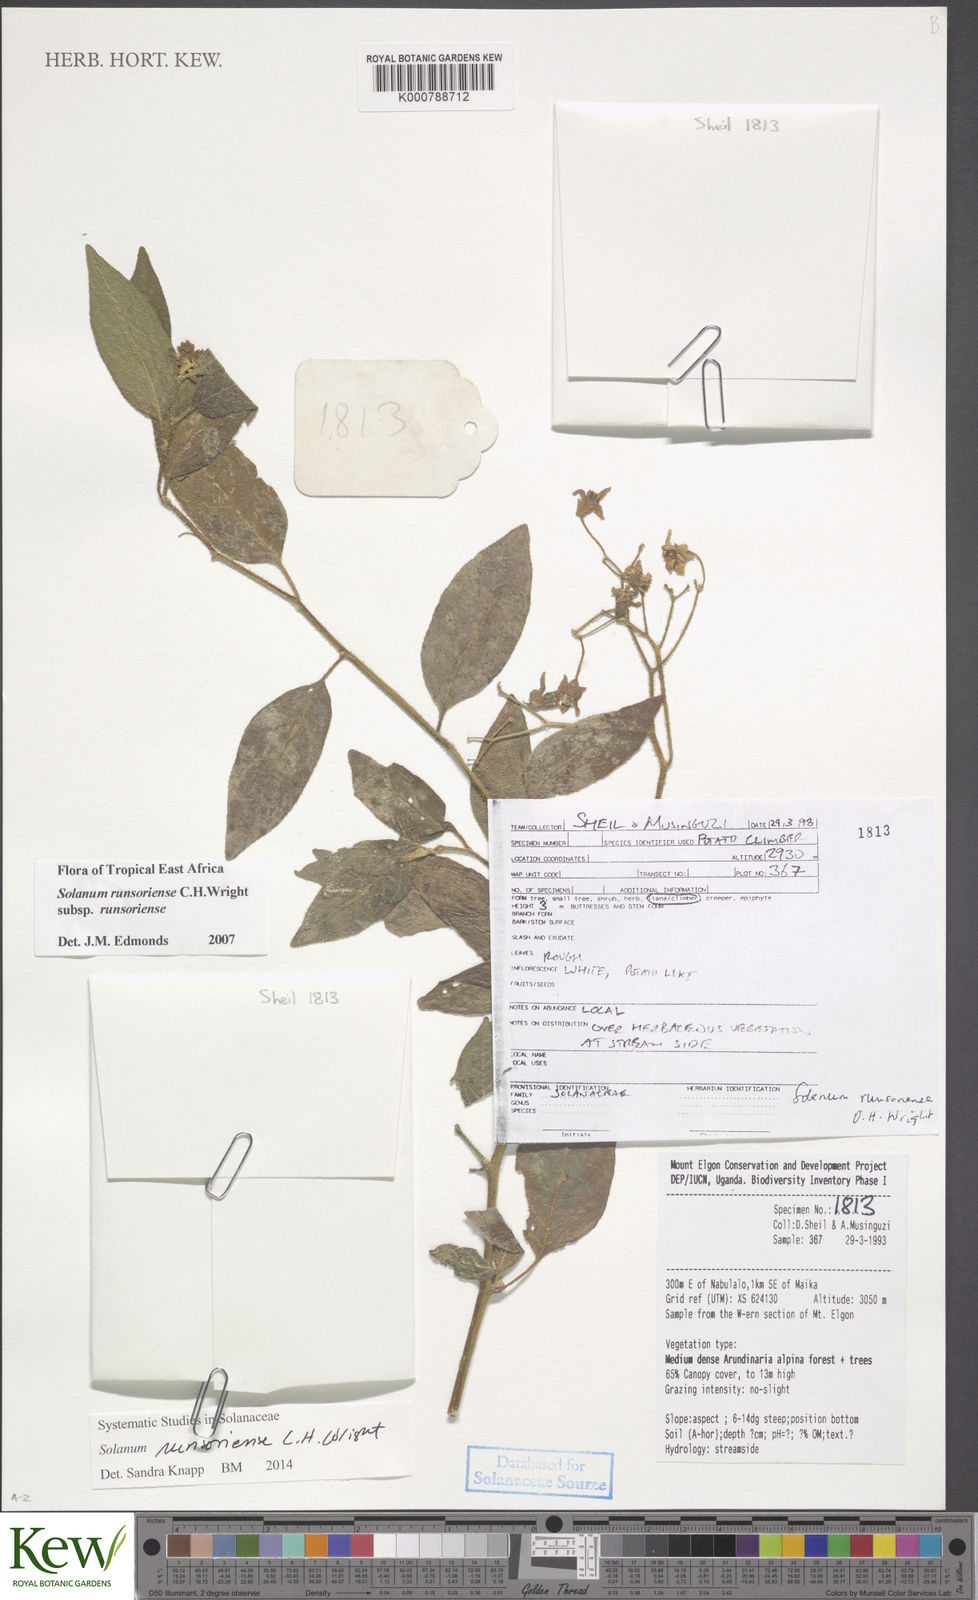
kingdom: Plantae
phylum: Tracheophyta
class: Magnoliopsida
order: Solanales
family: Solanaceae
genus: Solanum
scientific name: Solanum runsoriense
